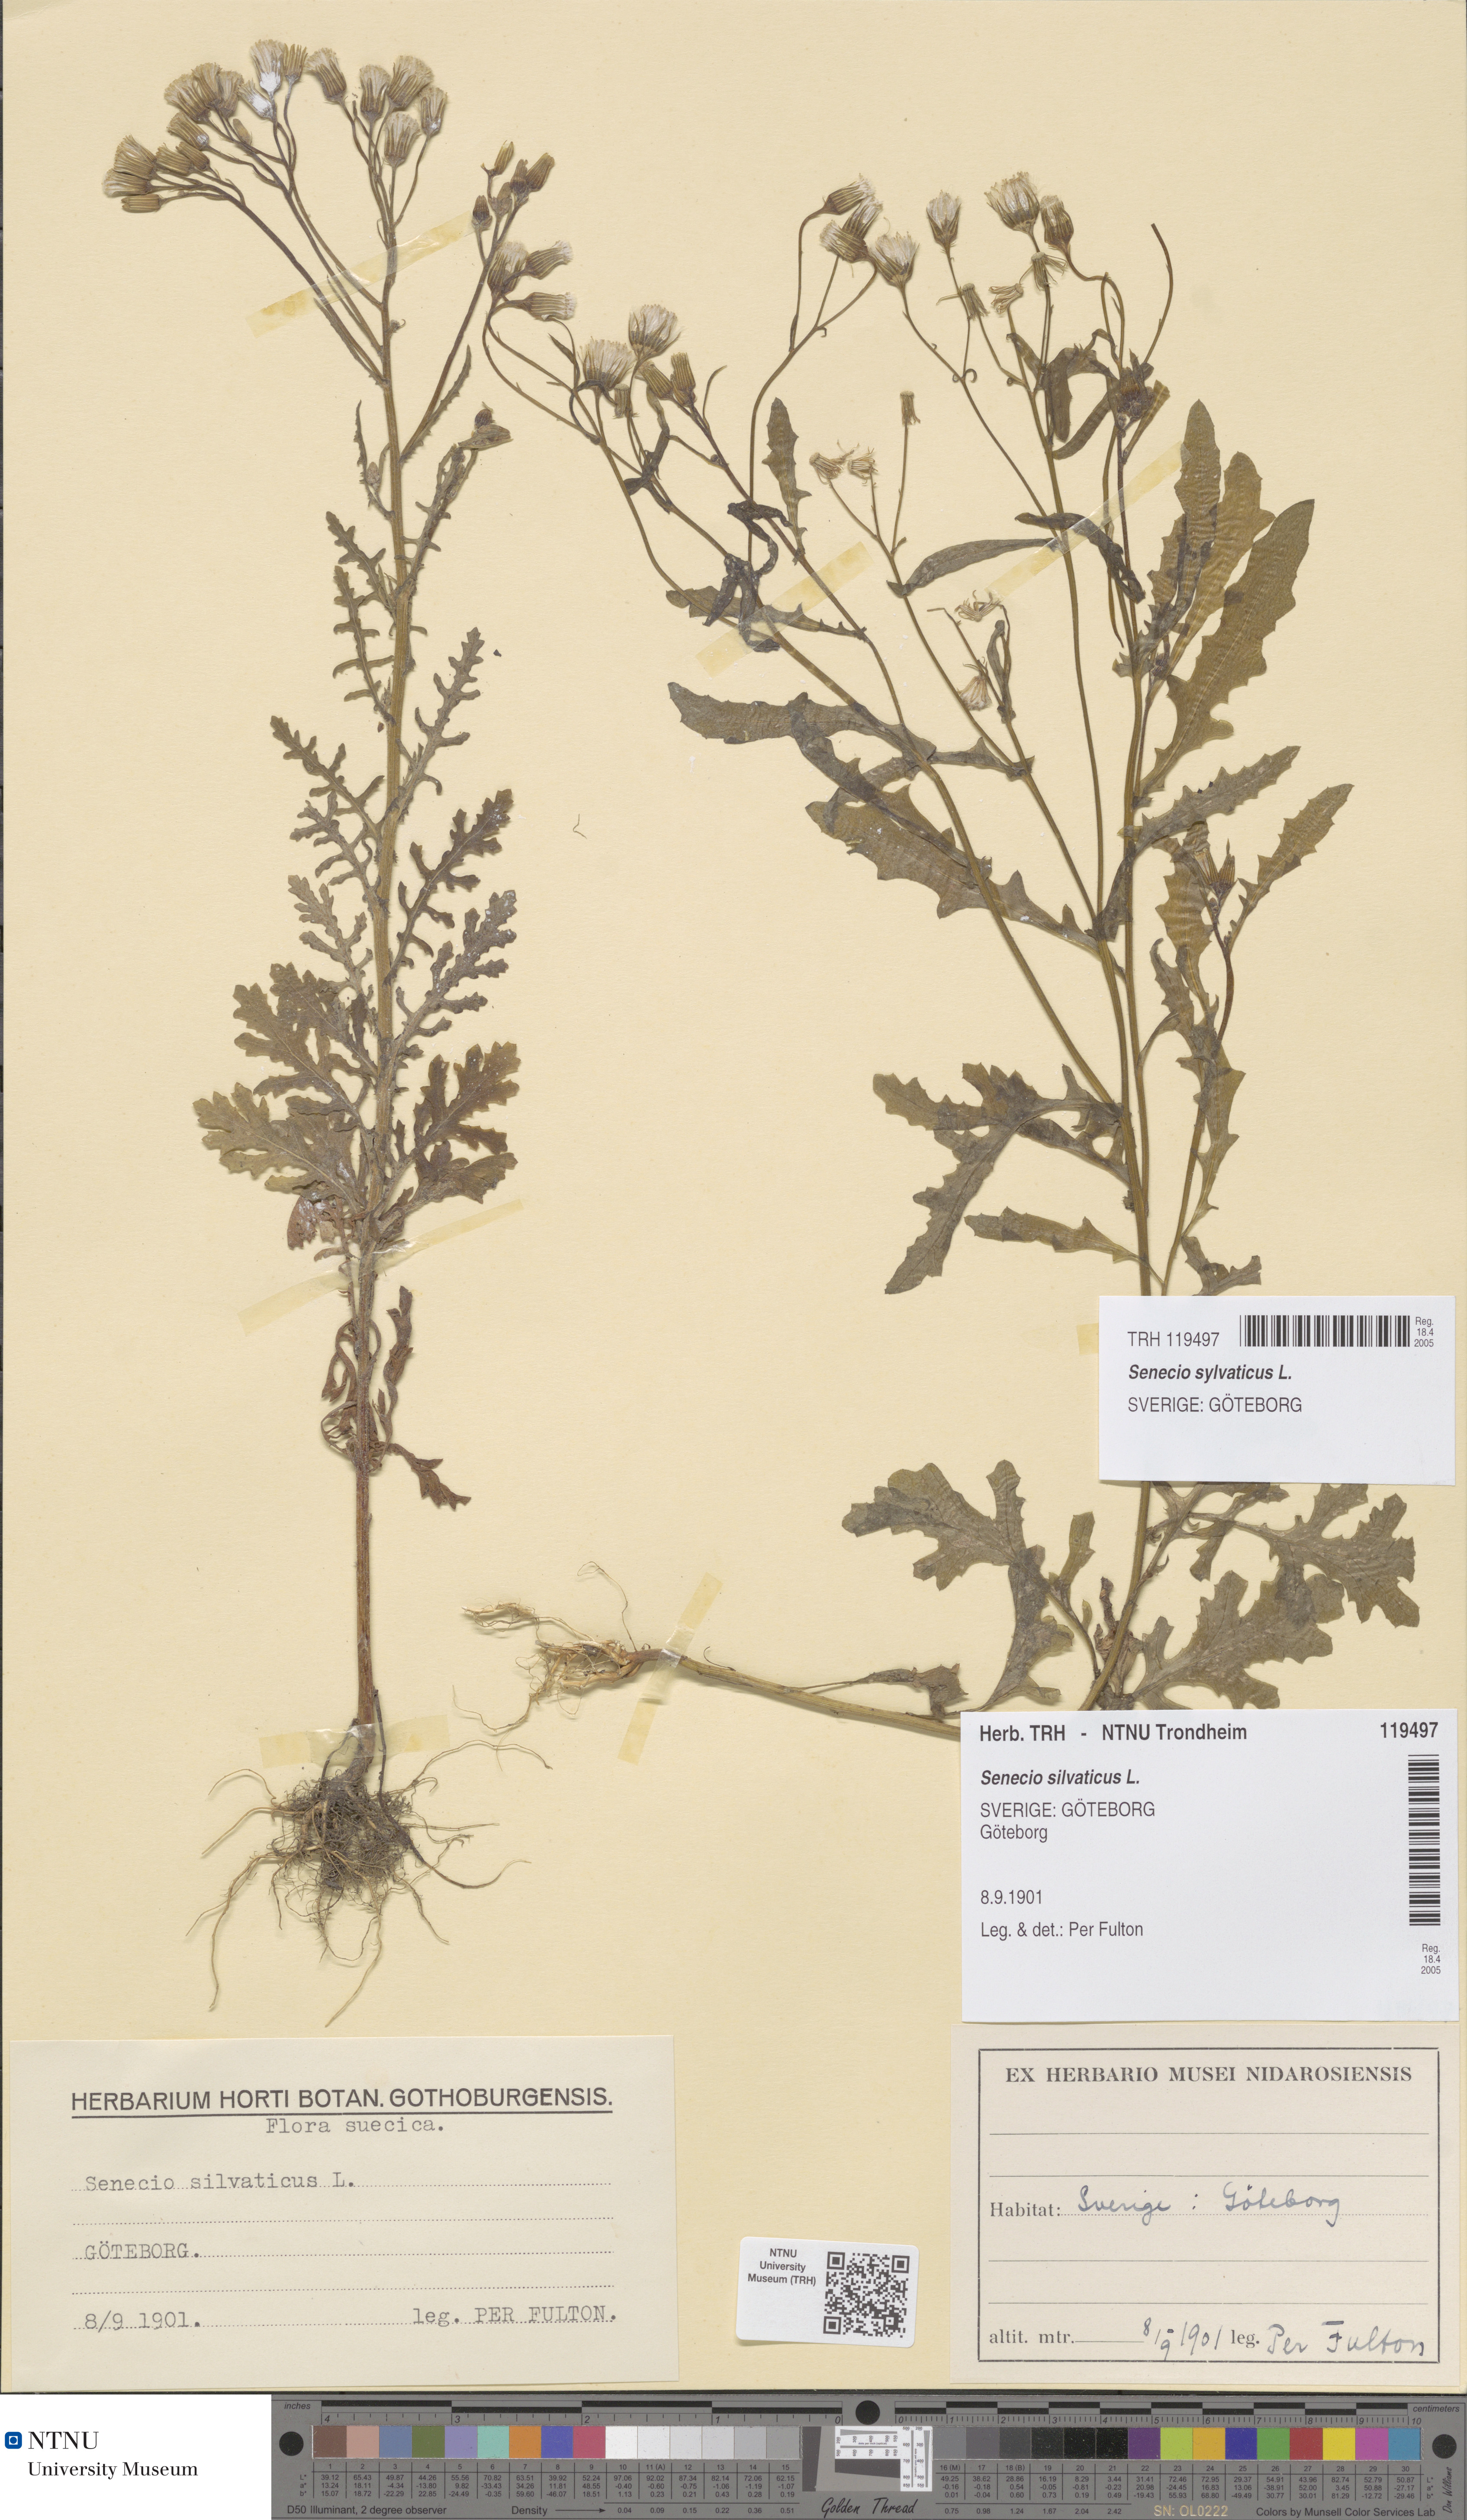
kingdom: Plantae
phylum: Tracheophyta
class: Magnoliopsida
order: Asterales
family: Asteraceae
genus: Senecio
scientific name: Senecio sylvaticus
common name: Woodland ragwort
